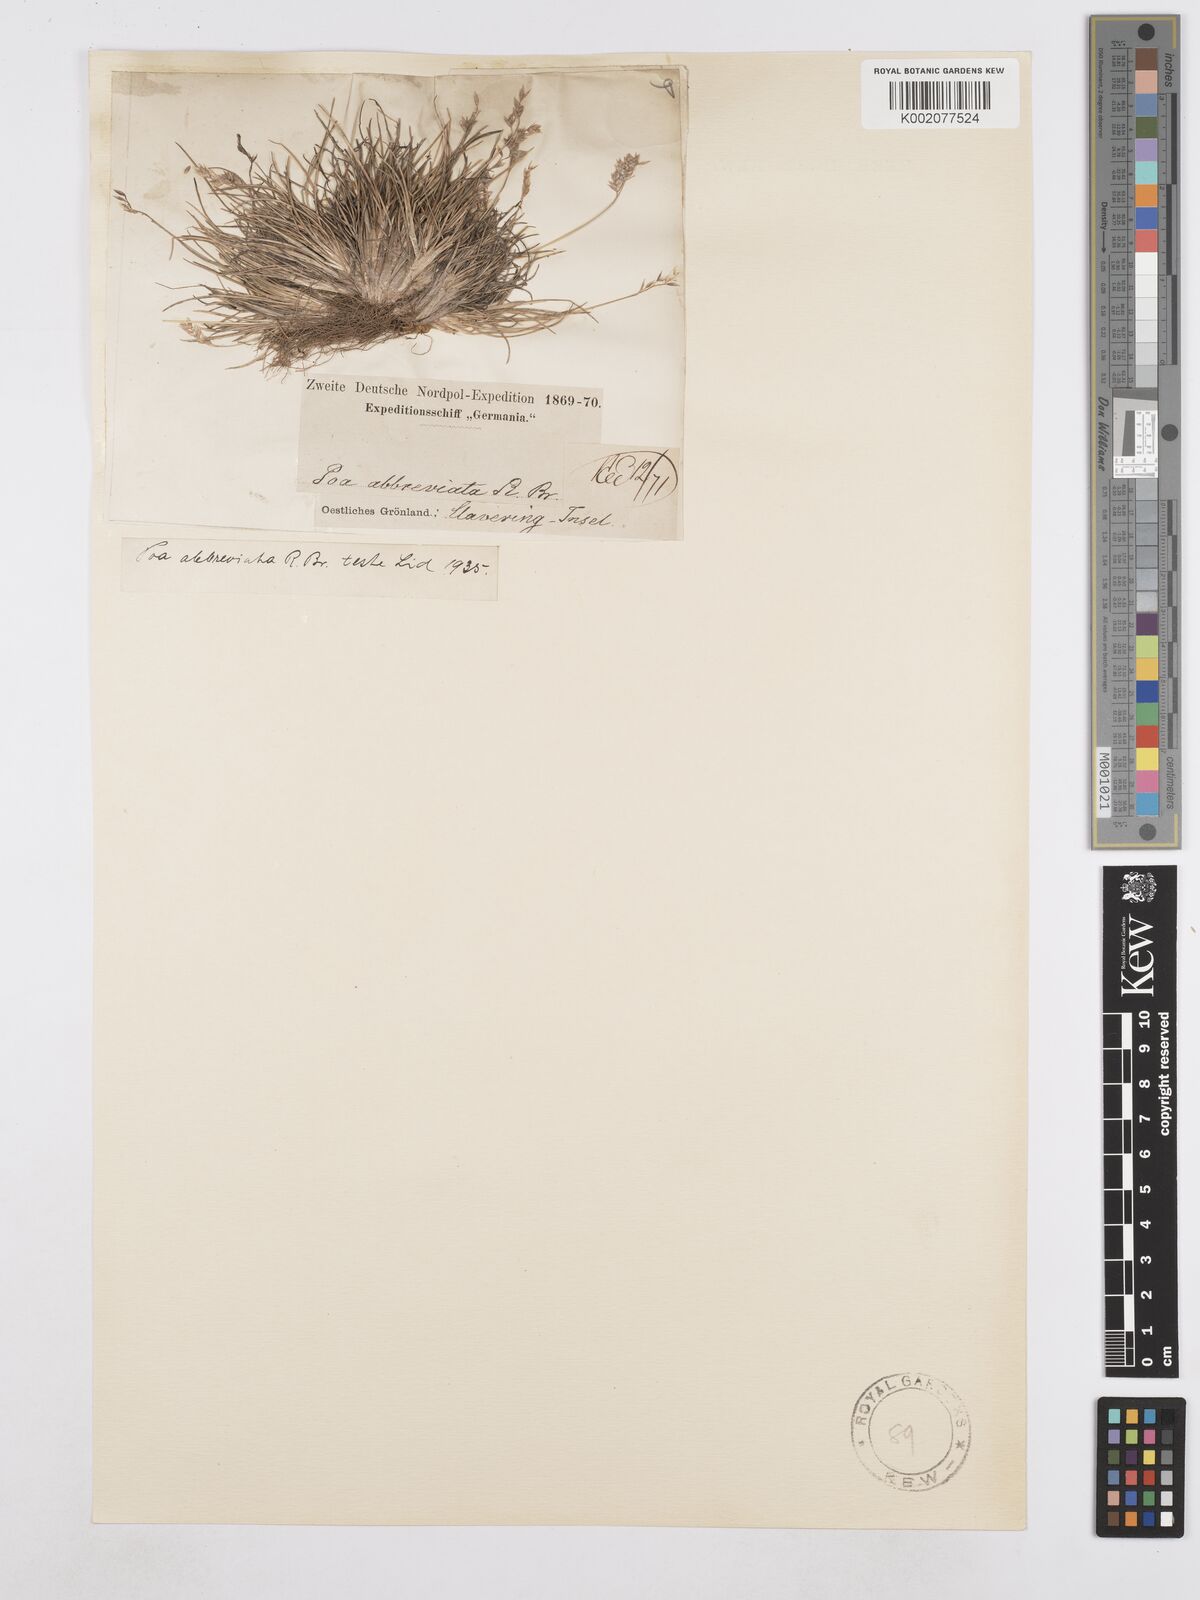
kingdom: Plantae
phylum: Tracheophyta
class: Liliopsida
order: Poales
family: Poaceae
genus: Poa
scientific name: Poa abbreviata
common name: Abbreviated bluegrass
